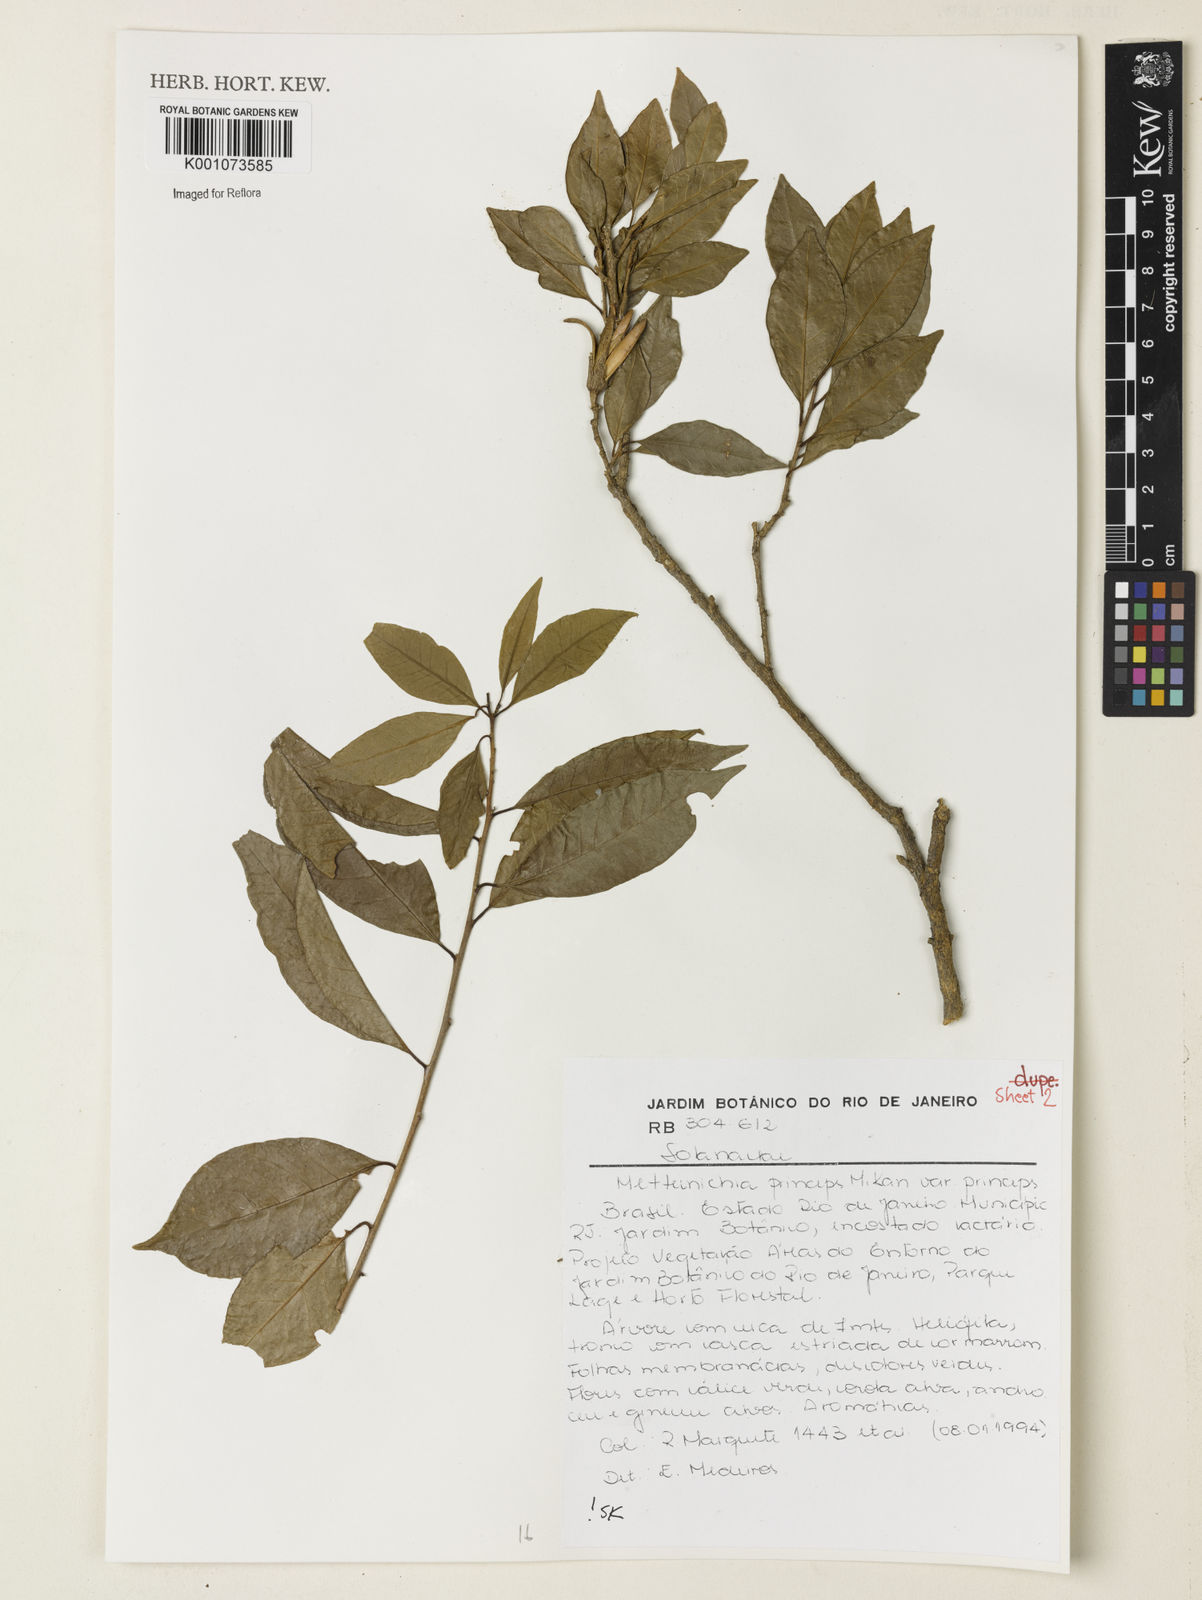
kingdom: Plantae
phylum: Tracheophyta
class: Magnoliopsida
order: Solanales
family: Solanaceae
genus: Metternichia
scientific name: Metternichia
